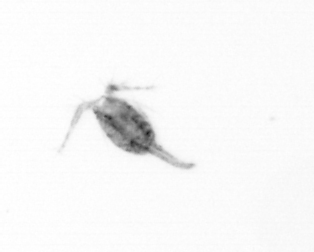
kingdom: Animalia
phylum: Arthropoda
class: Copepoda
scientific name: Copepoda
